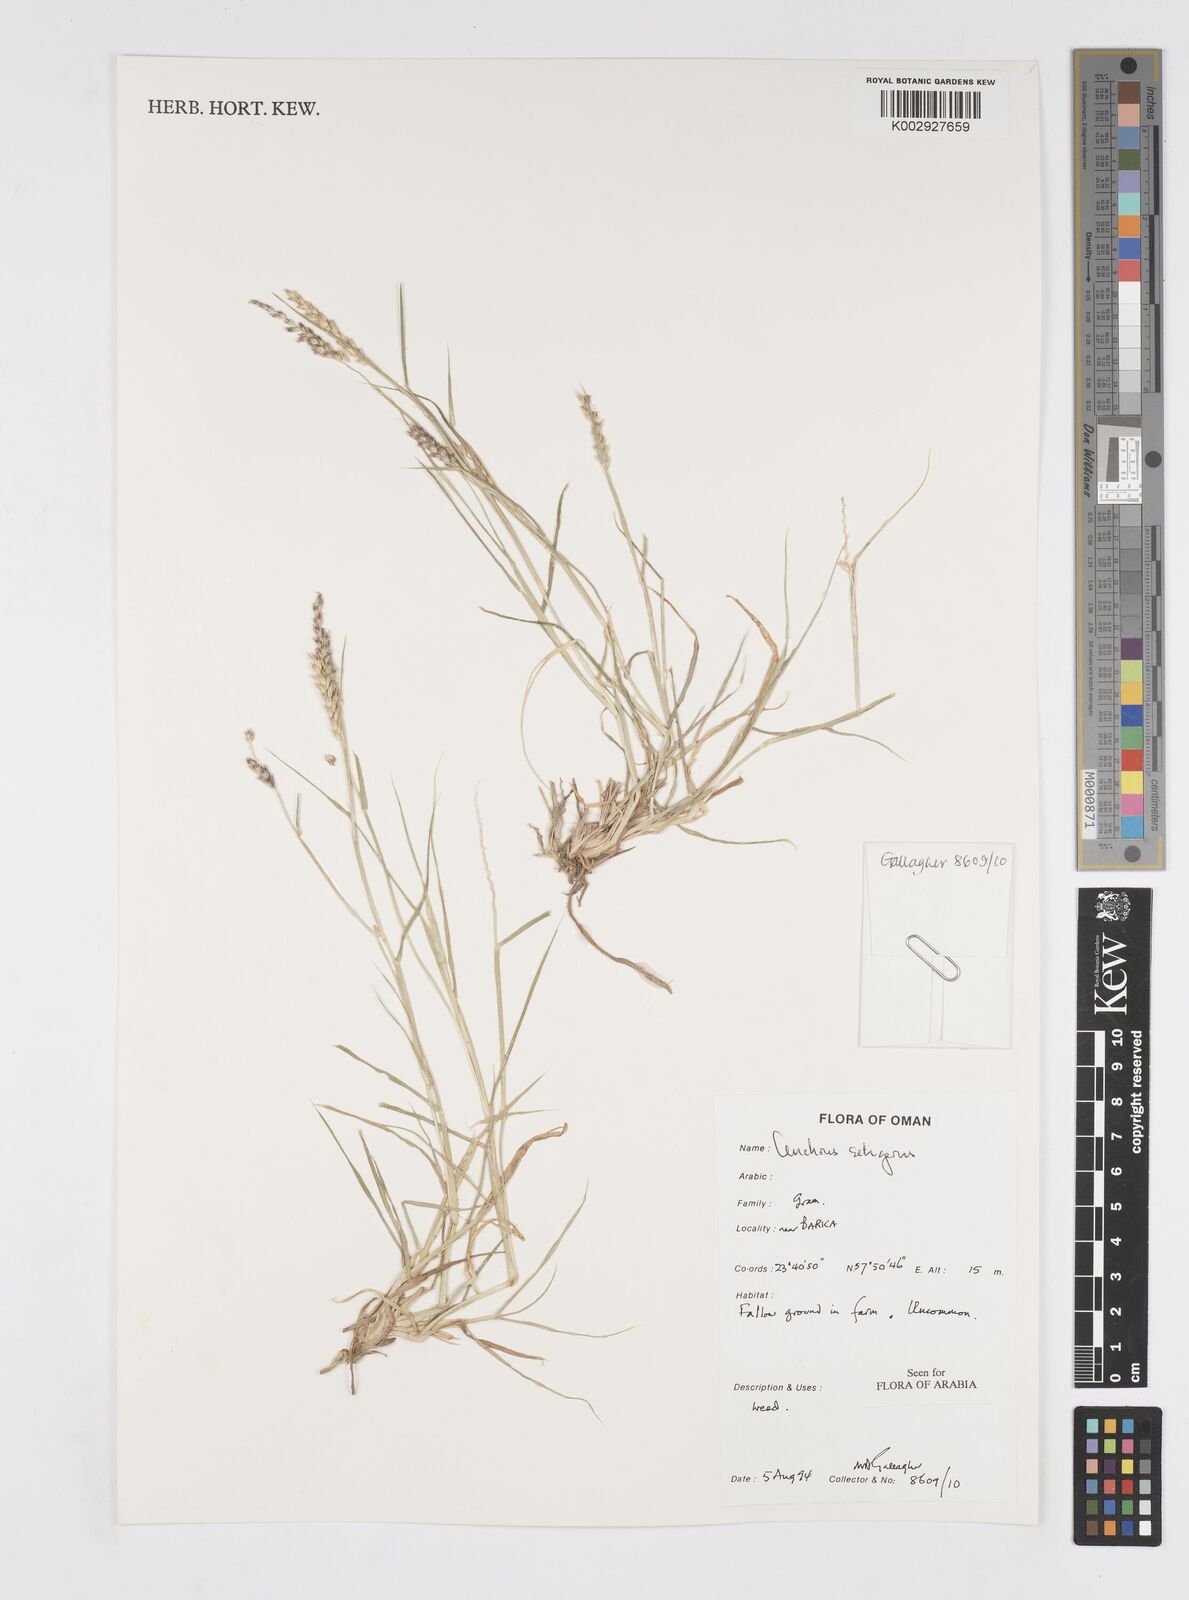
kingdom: Plantae
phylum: Tracheophyta
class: Liliopsida
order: Poales
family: Poaceae
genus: Cenchrus
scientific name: Cenchrus setigerus
